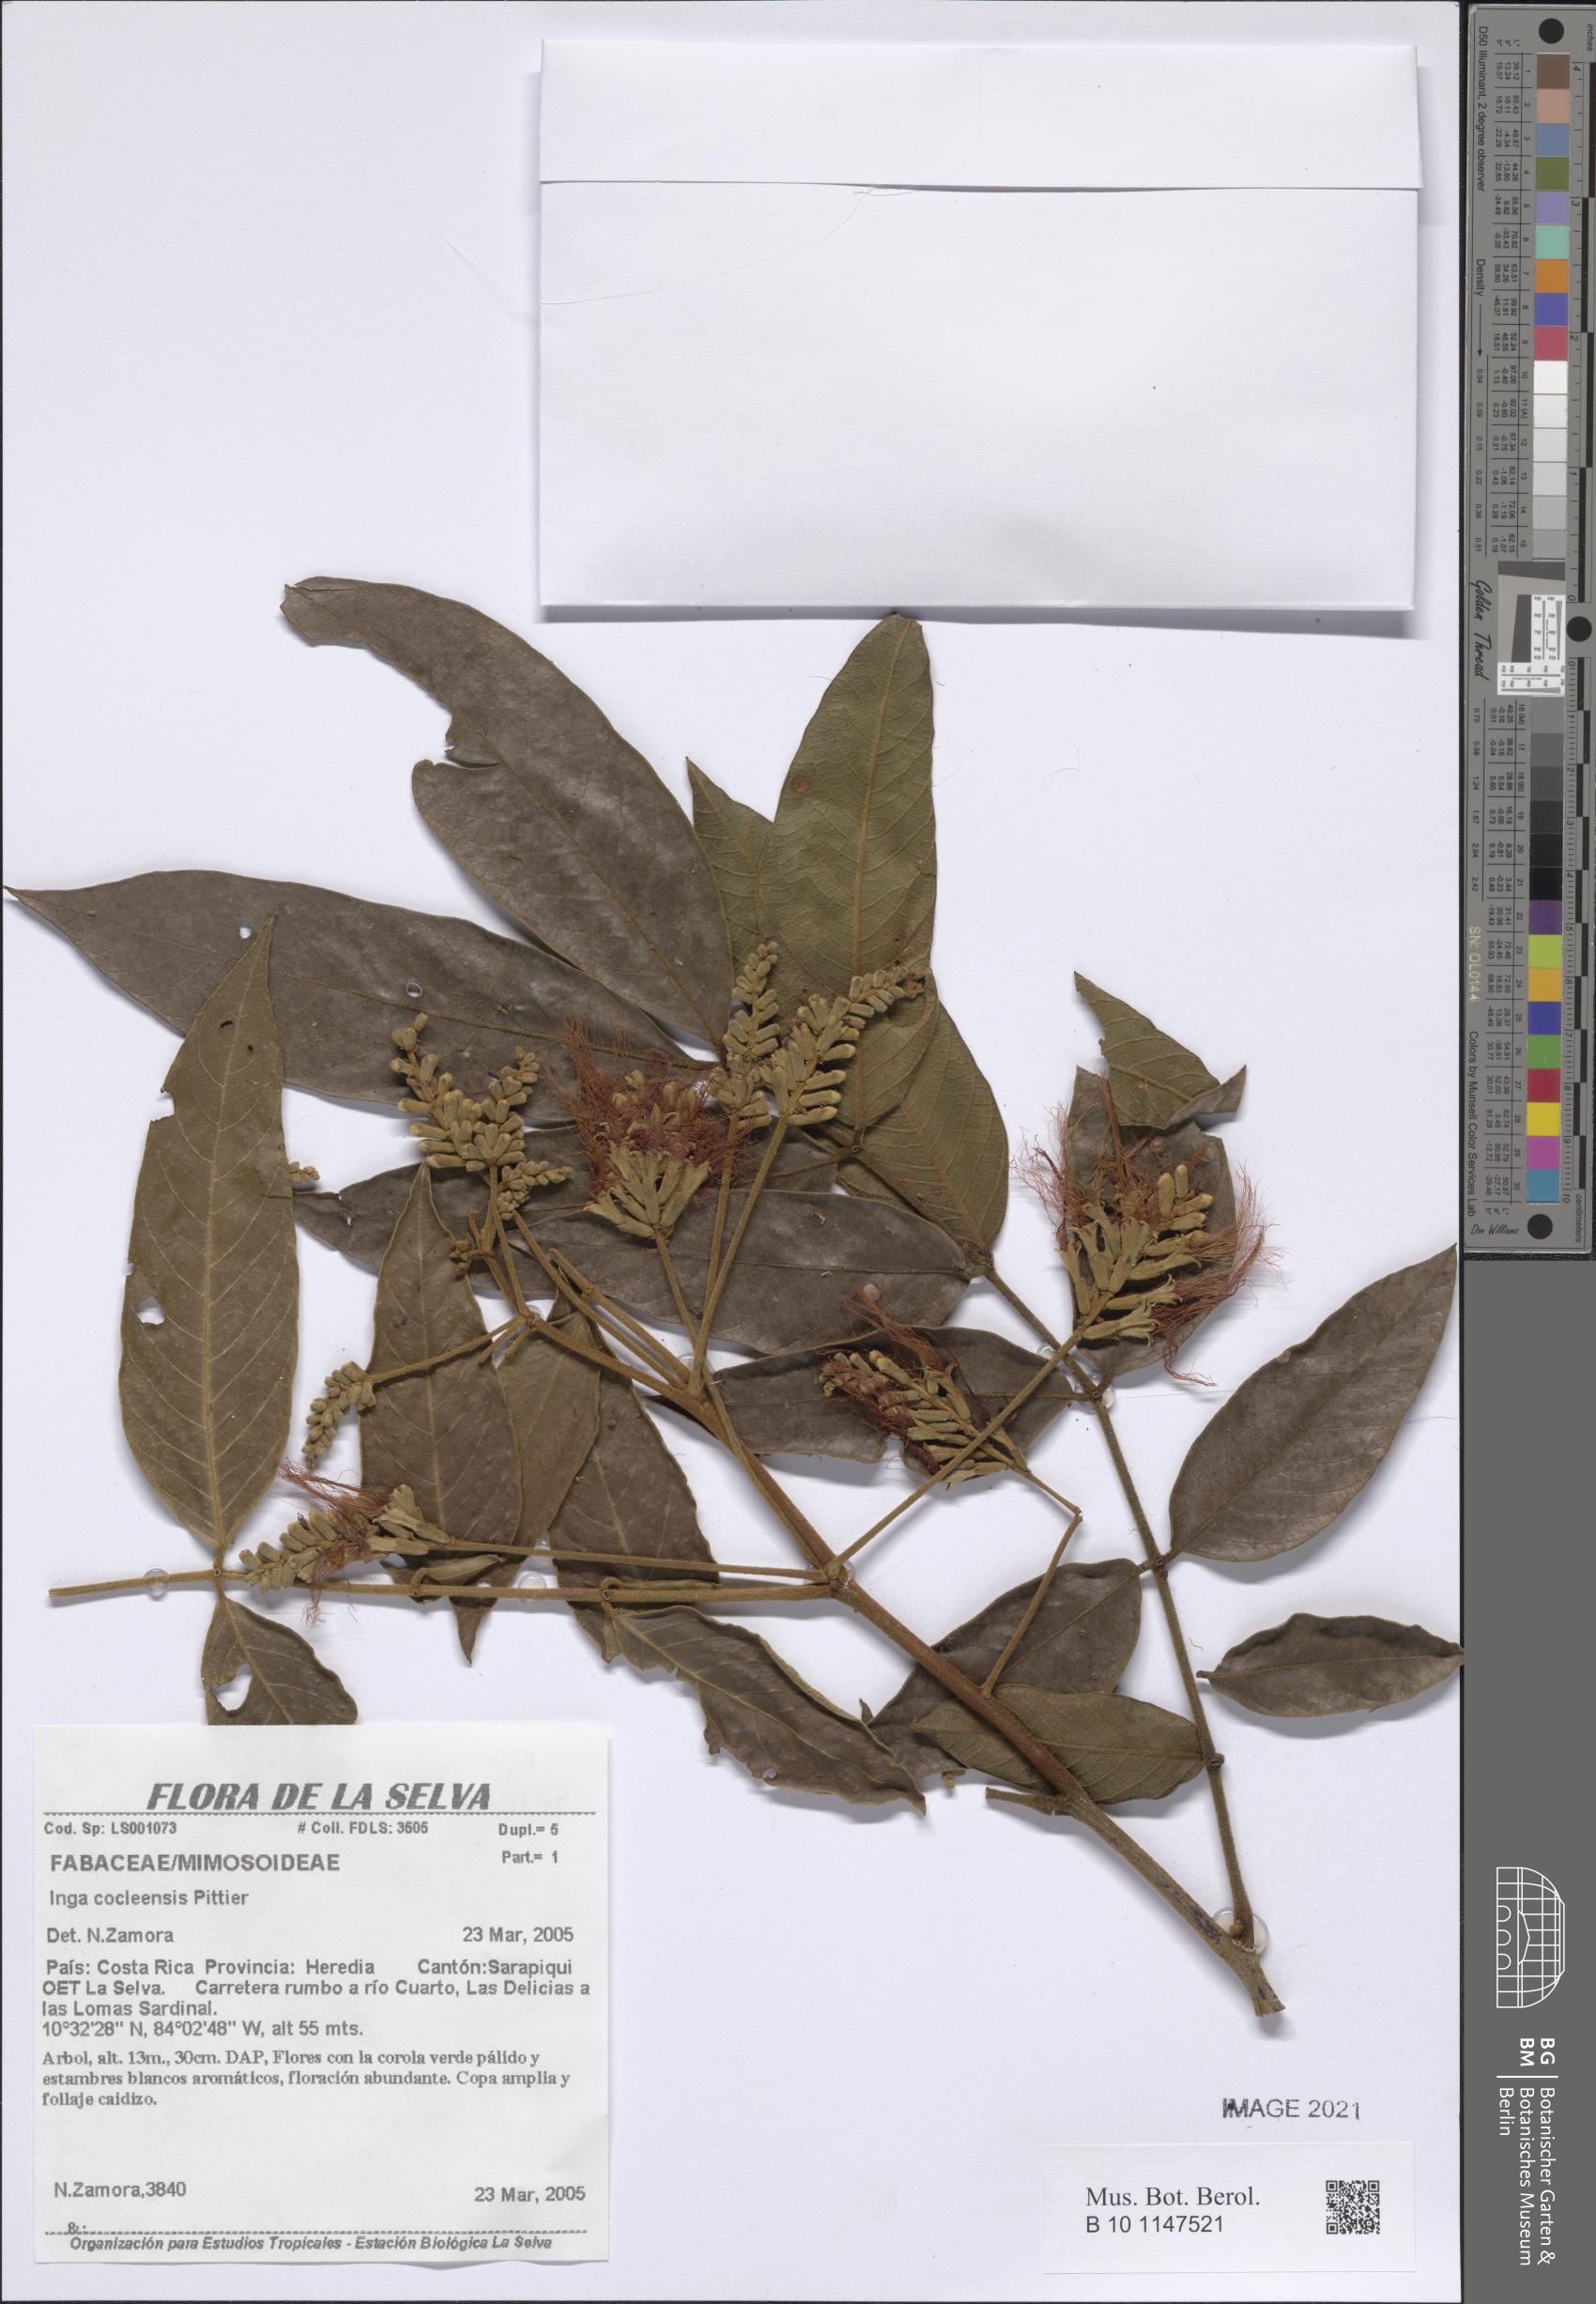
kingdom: Plantae
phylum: Tracheophyta
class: Magnoliopsida
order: Fabales
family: Fabaceae
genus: Inga
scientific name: Inga cocleensis
